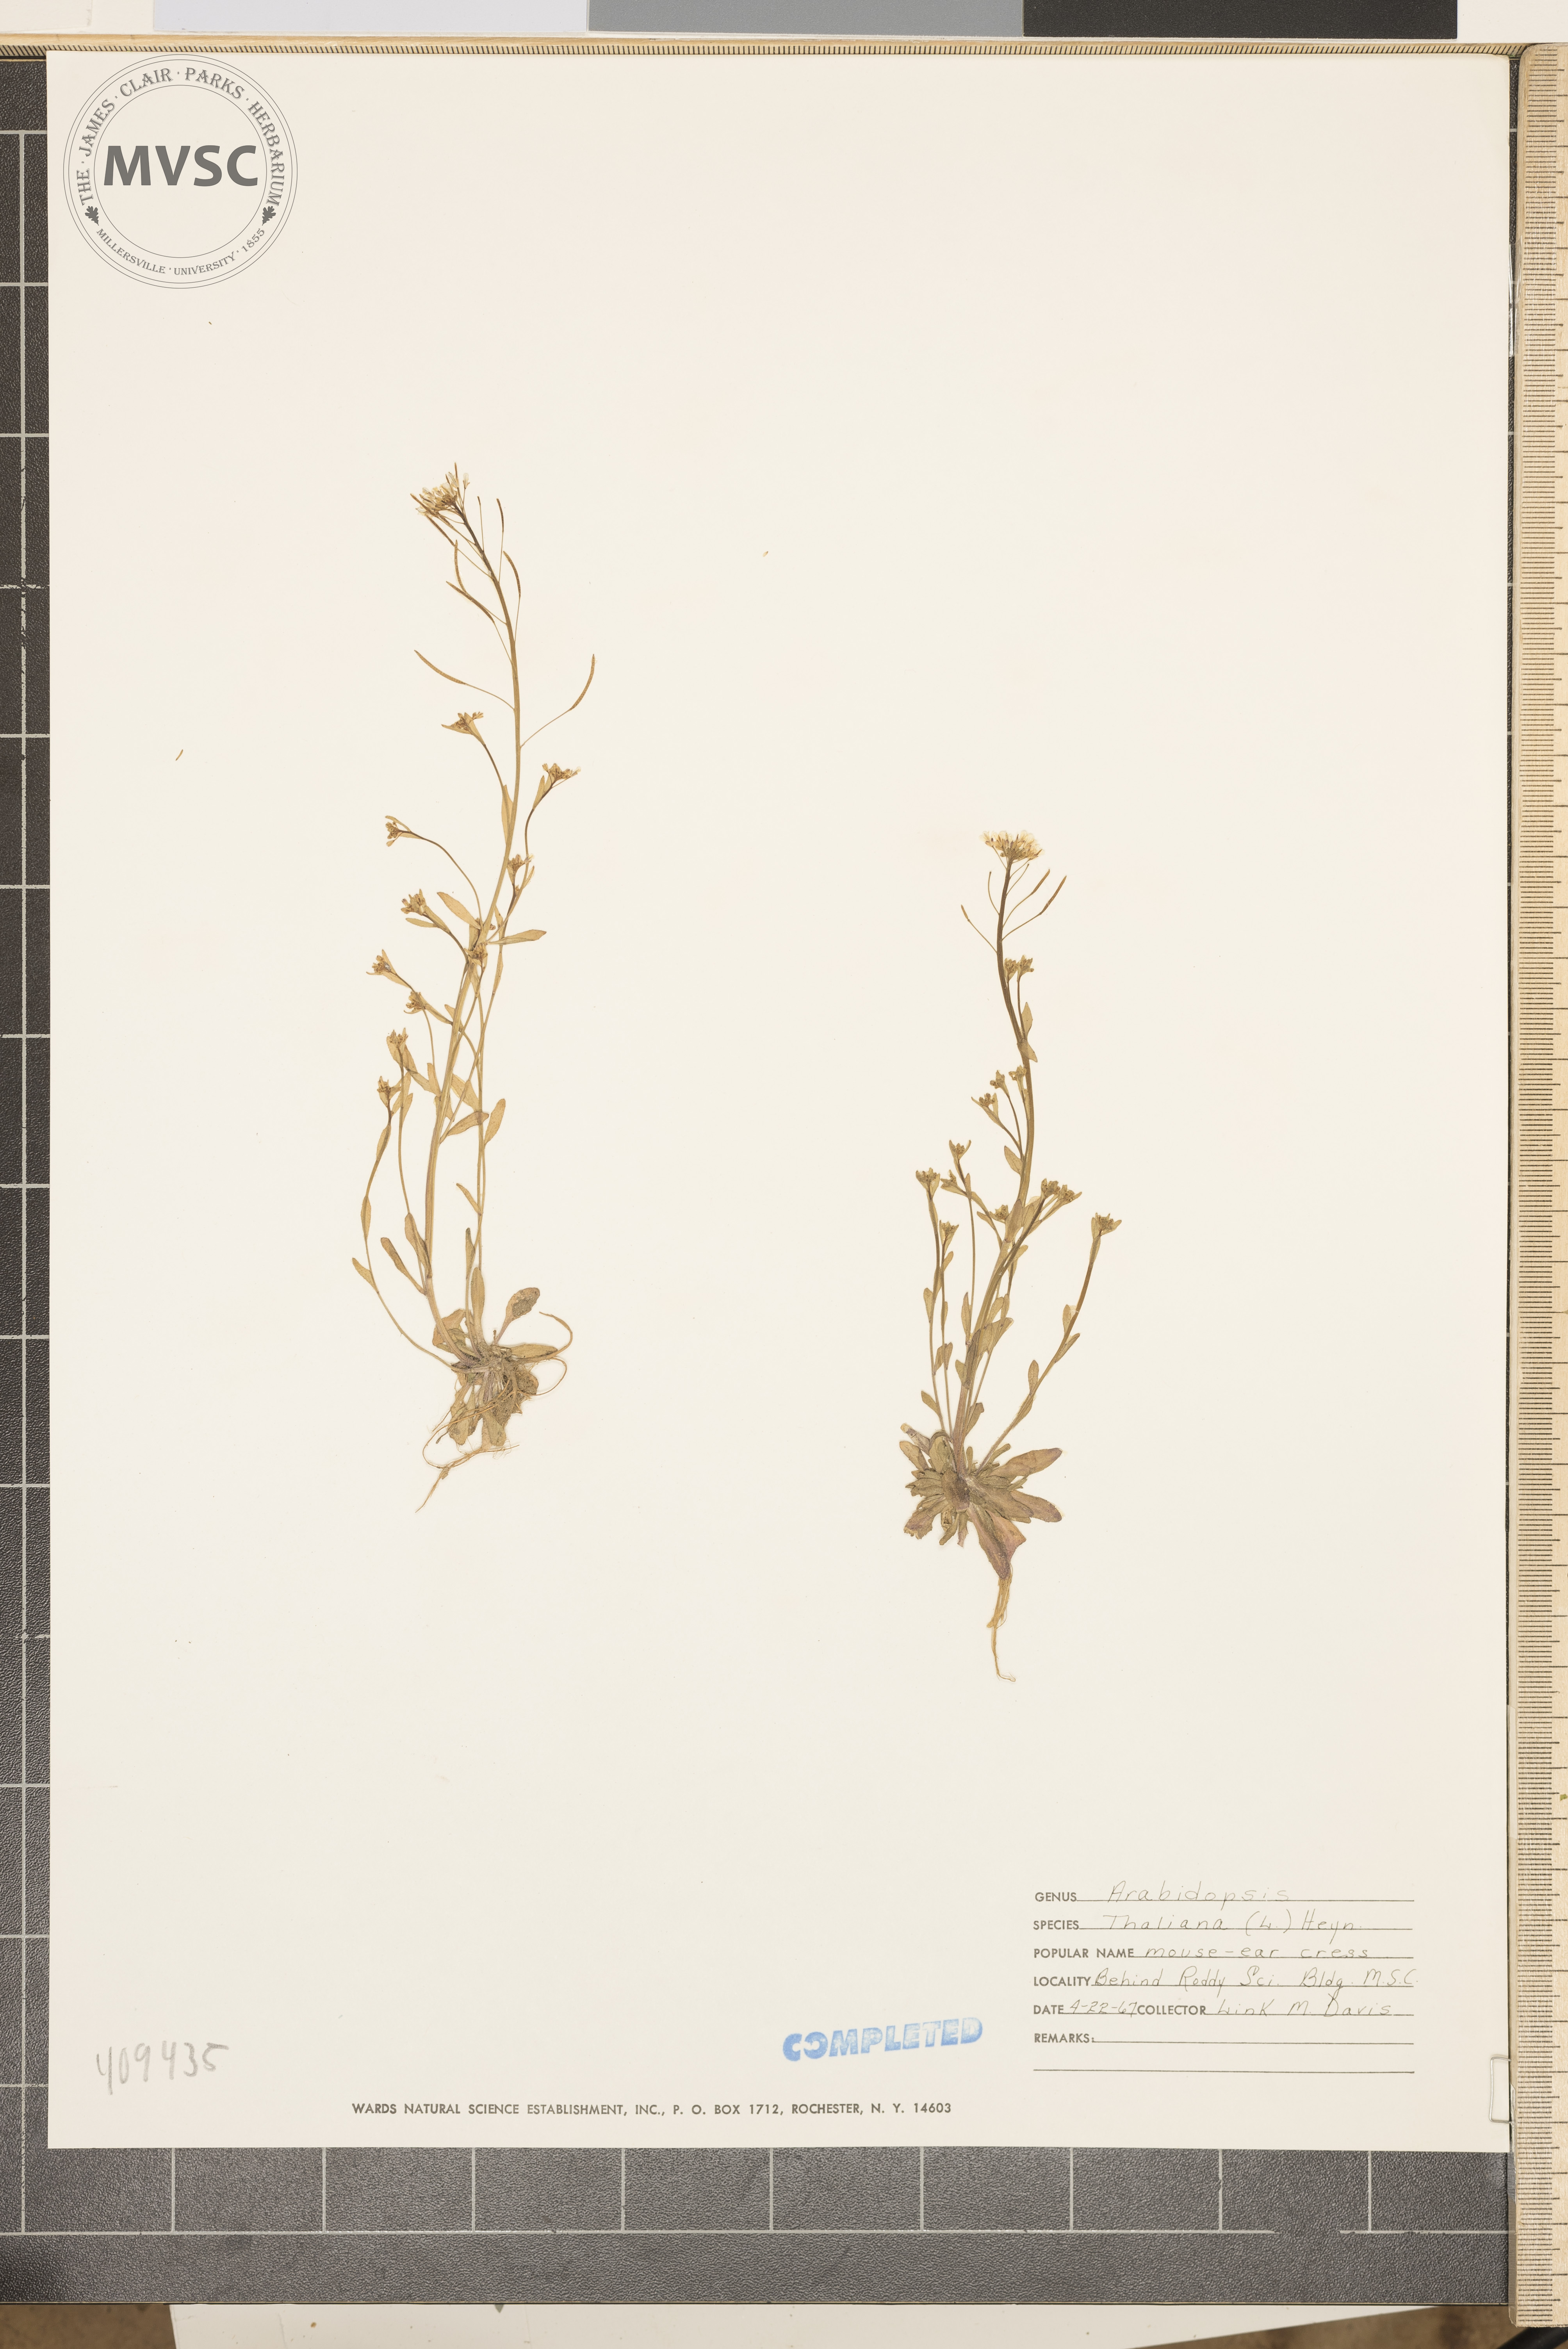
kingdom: Plantae
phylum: Tracheophyta
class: Magnoliopsida
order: Brassicales
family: Brassicaceae
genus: Arabidopsis
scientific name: Arabidopsis thaliana
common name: Thale cress
